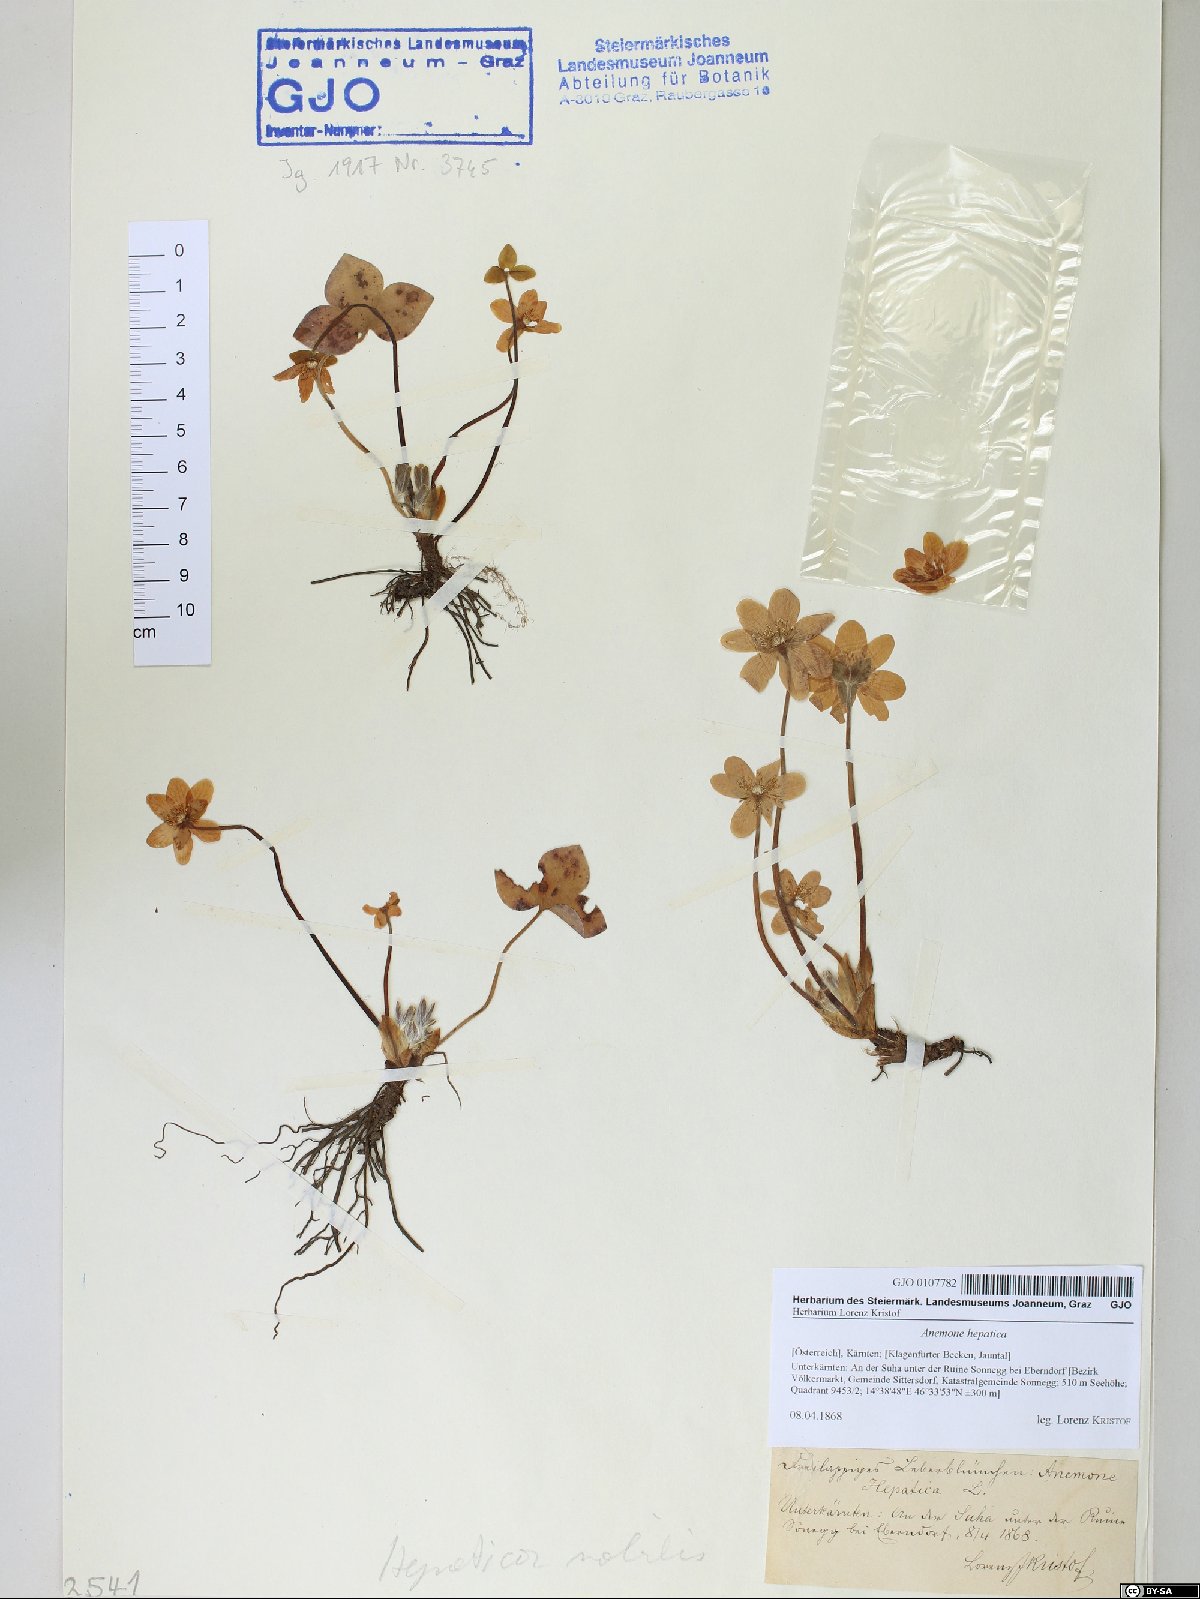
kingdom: Plantae
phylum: Tracheophyta
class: Magnoliopsida
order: Ranunculales
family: Ranunculaceae
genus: Hepatica
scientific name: Hepatica nobilis
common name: Liverleaf
